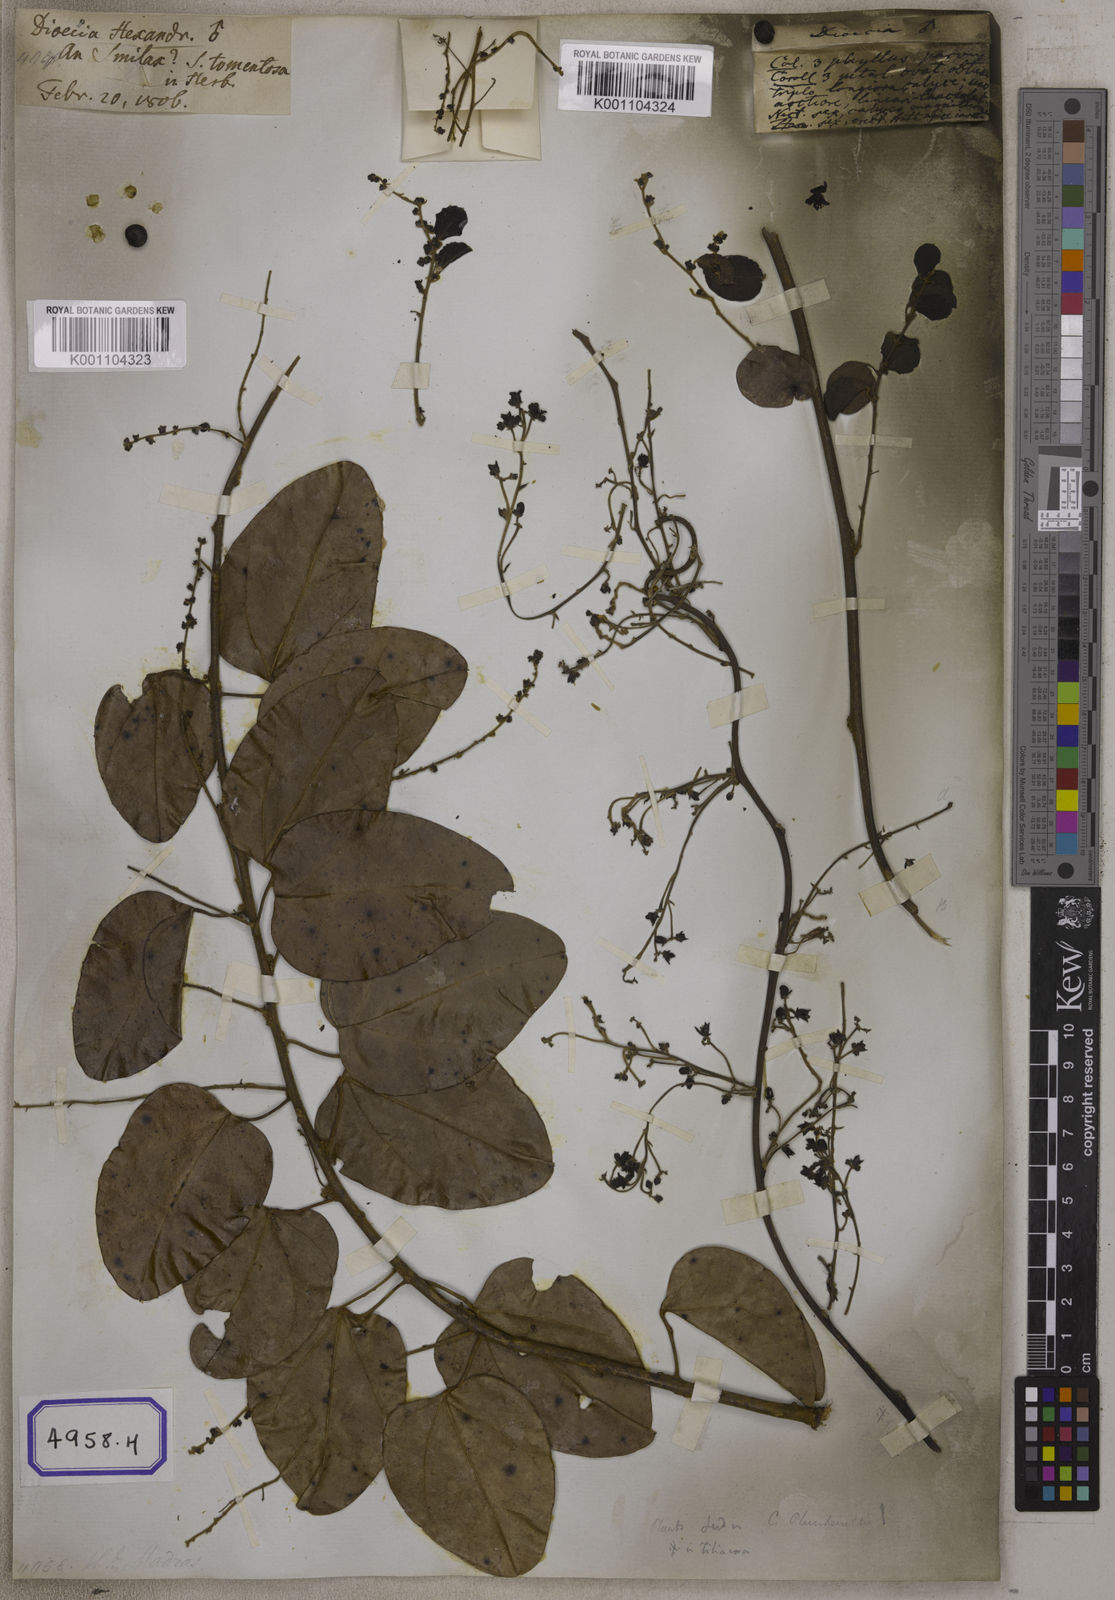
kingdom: Plantae
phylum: Tracheophyta
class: Magnoliopsida
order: Ranunculales
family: Menispermaceae
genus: Cocculus
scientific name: Cocculus
